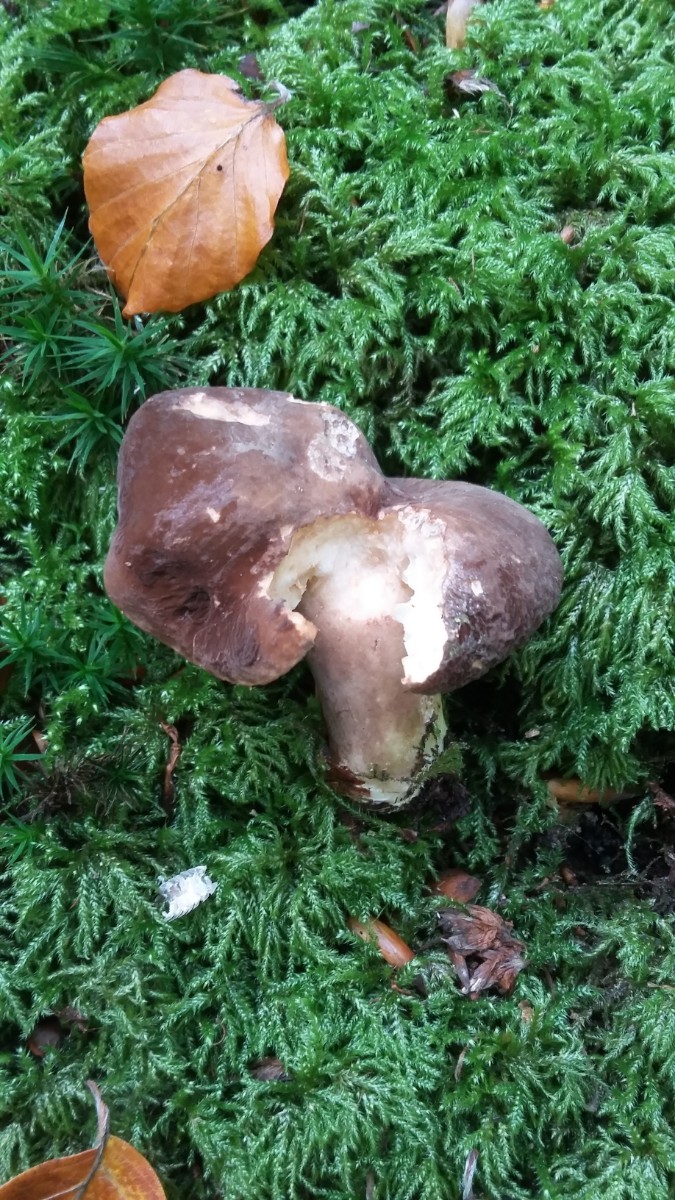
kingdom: Fungi
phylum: Basidiomycota
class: Agaricomycetes
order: Russulales
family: Russulaceae
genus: Lactarius
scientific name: Lactarius romagnesii
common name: fjernbladet mælkehat
